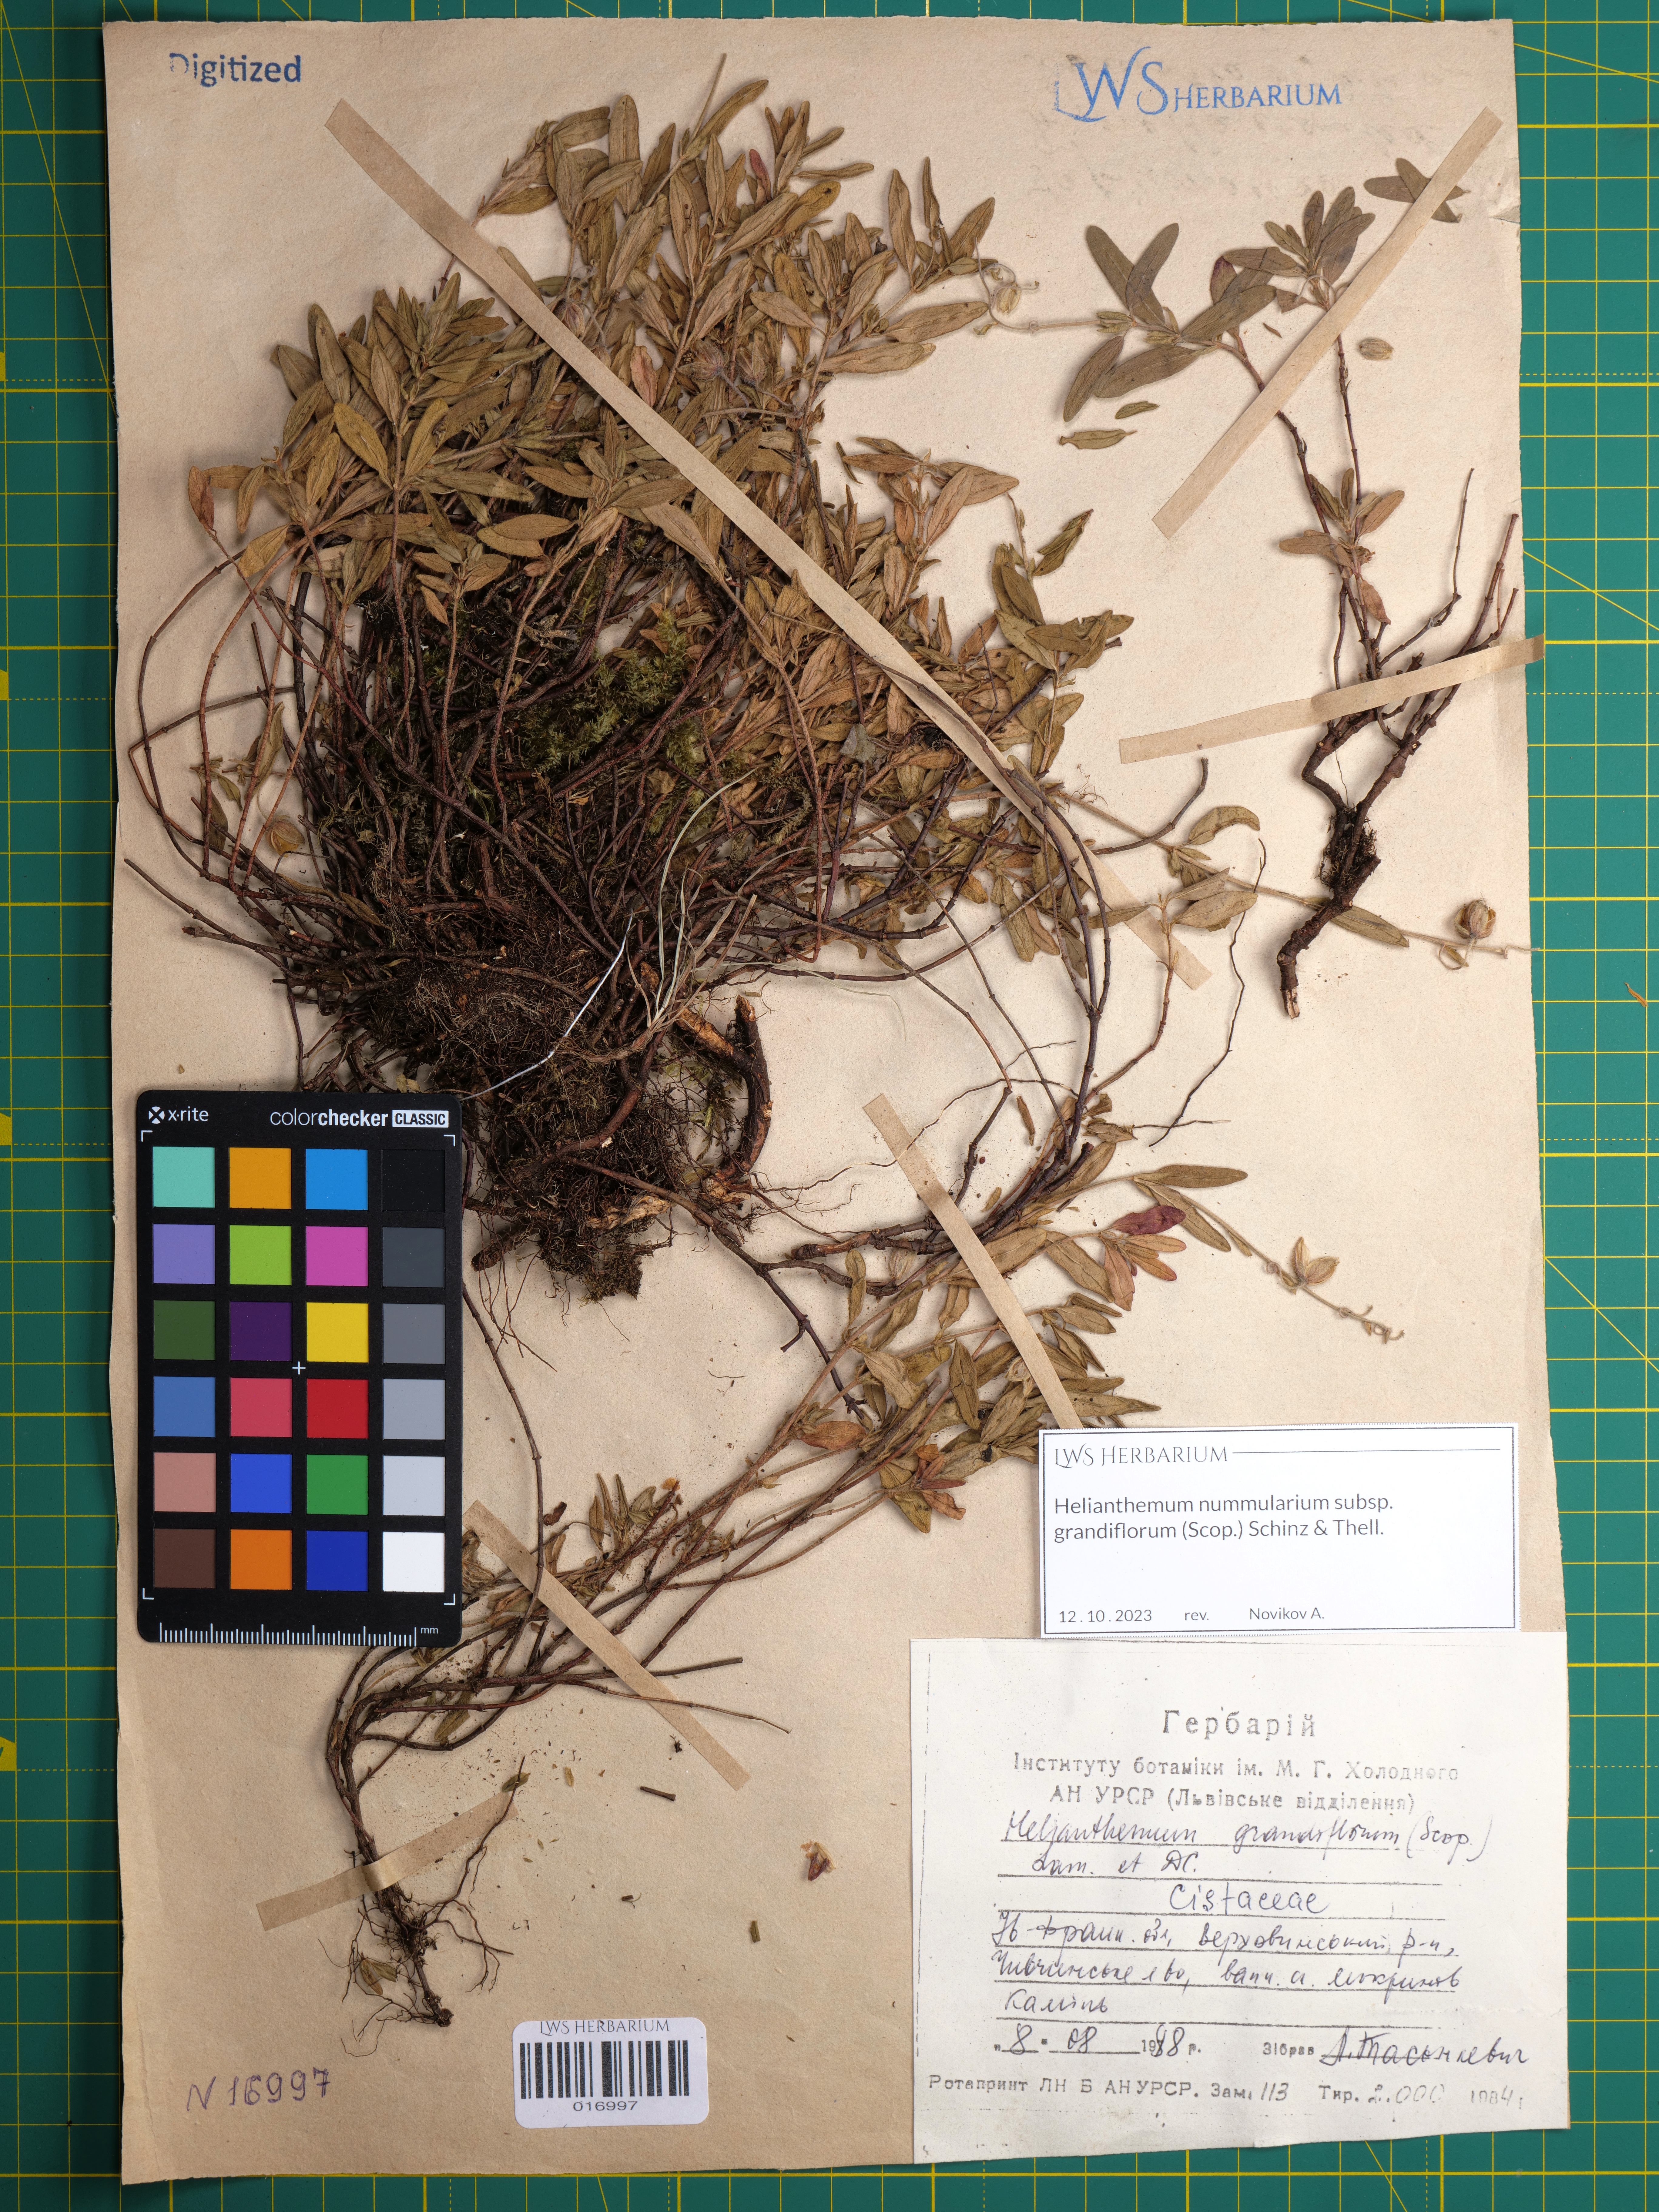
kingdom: Plantae
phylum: Tracheophyta
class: Magnoliopsida
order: Malvales
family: Cistaceae
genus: Helianthemum
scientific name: Helianthemum nummularium
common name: Common rock-rose
